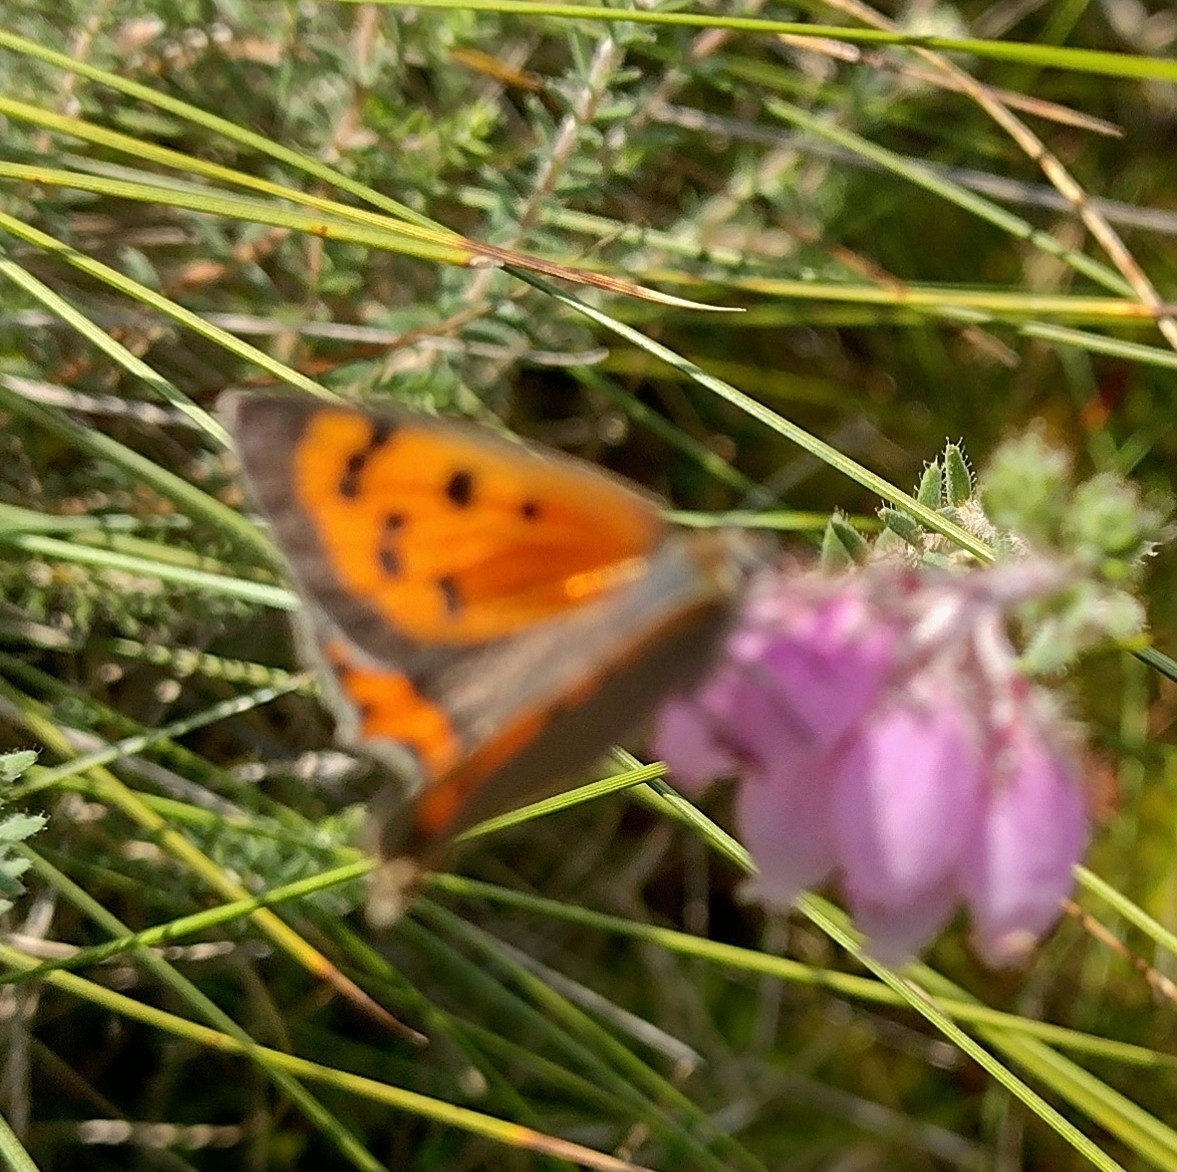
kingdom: Animalia
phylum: Arthropoda
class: Insecta
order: Lepidoptera
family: Lycaenidae
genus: Lycaena
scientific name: Lycaena phlaeas
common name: Lille ildfugl
